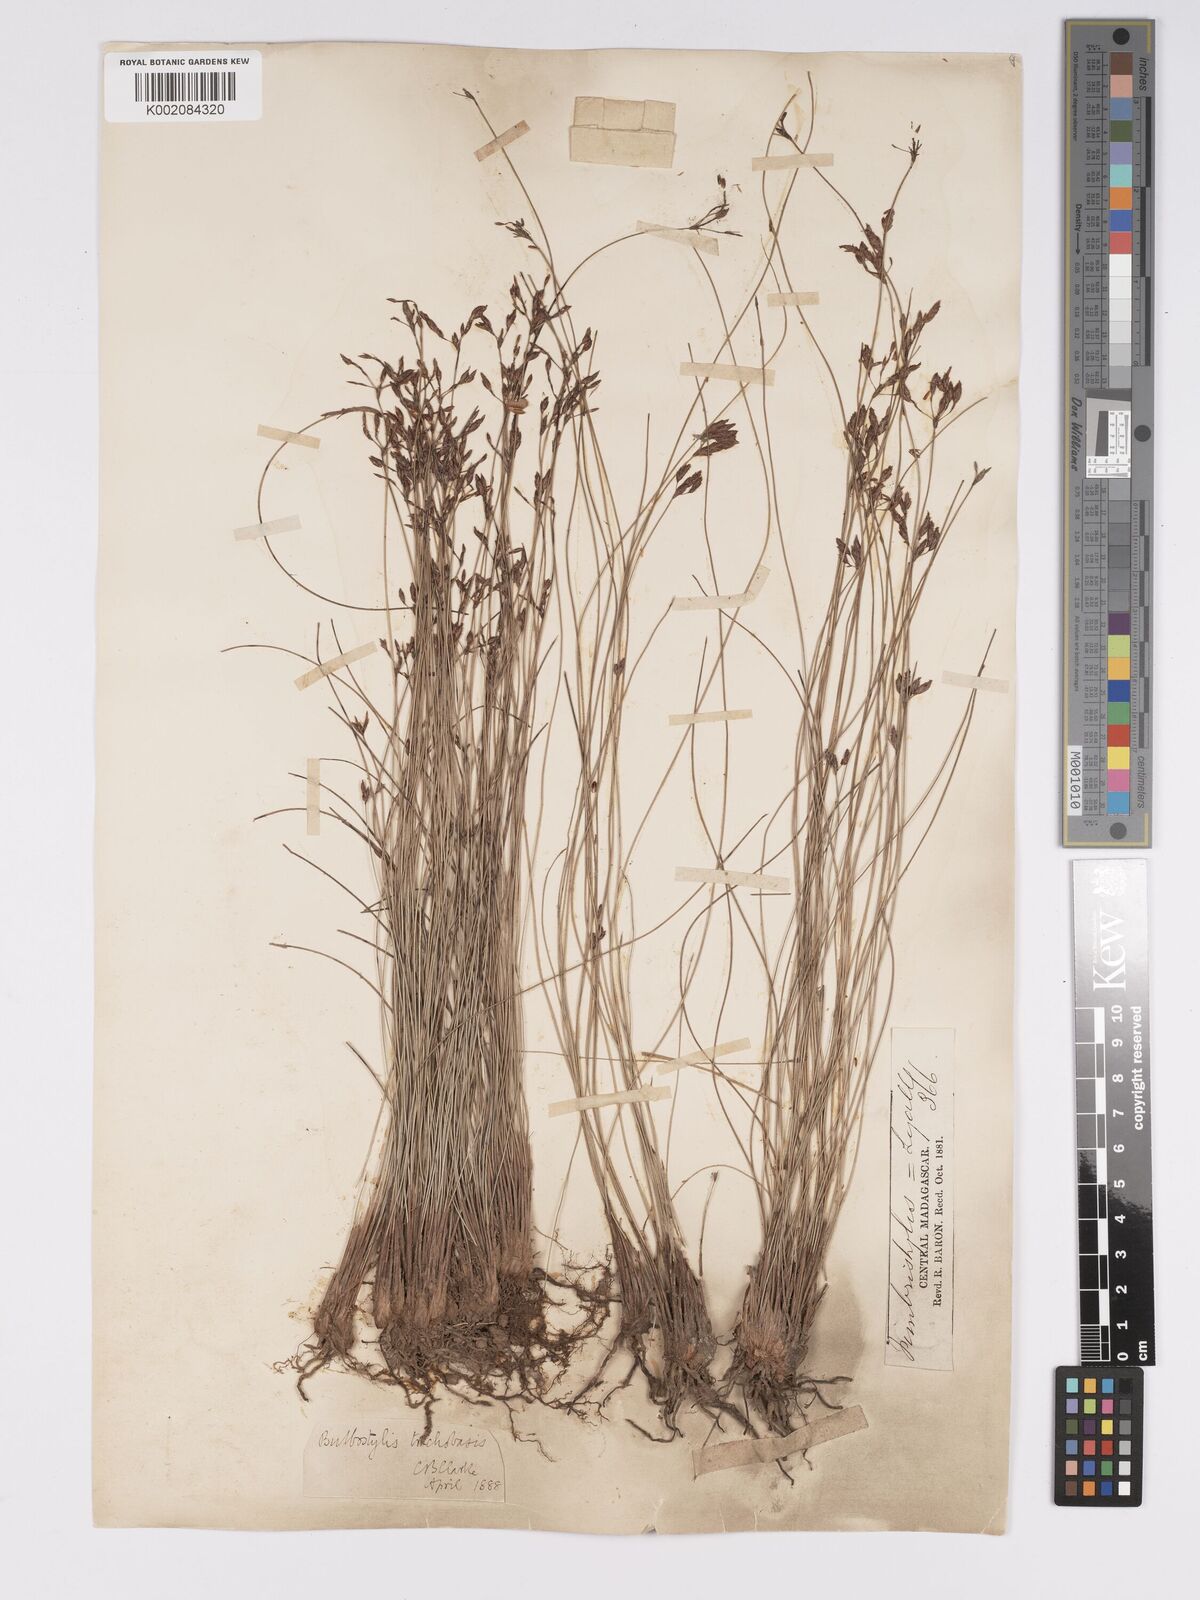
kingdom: Plantae
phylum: Tracheophyta
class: Liliopsida
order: Poales
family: Cyperaceae
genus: Bulbostylis
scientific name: Bulbostylis trichobasis
